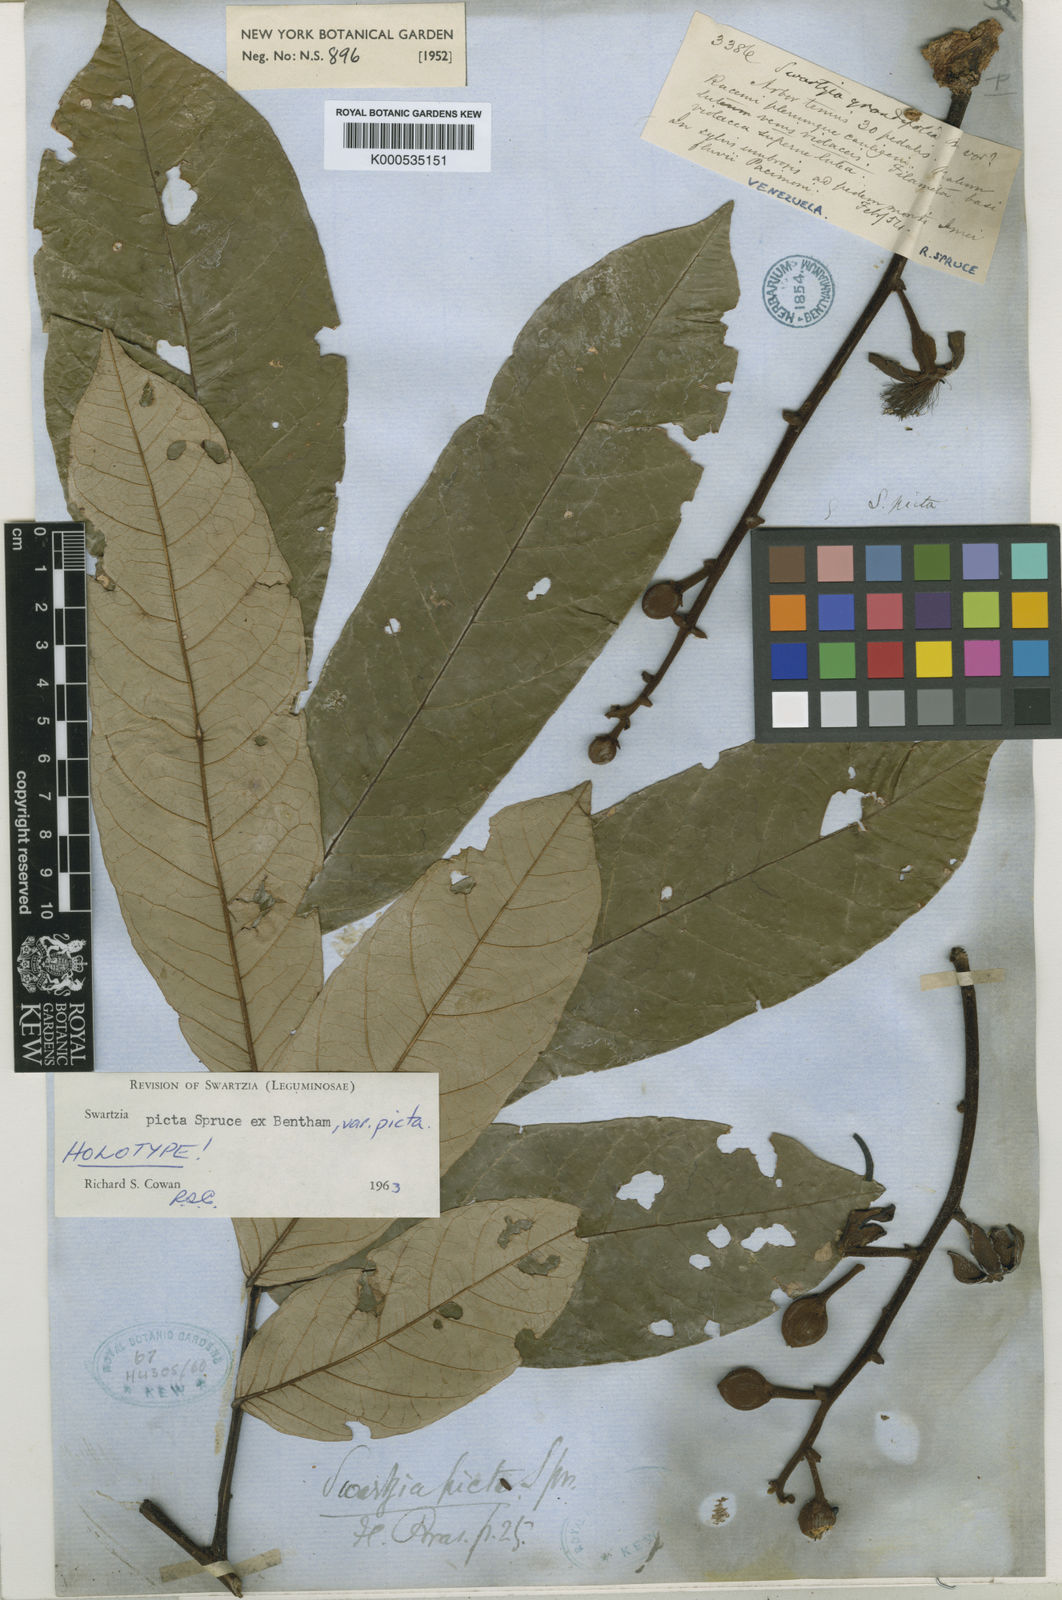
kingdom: Plantae
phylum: Tracheophyta
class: Magnoliopsida
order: Fabales
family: Fabaceae
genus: Swartzia
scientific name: Swartzia picta
